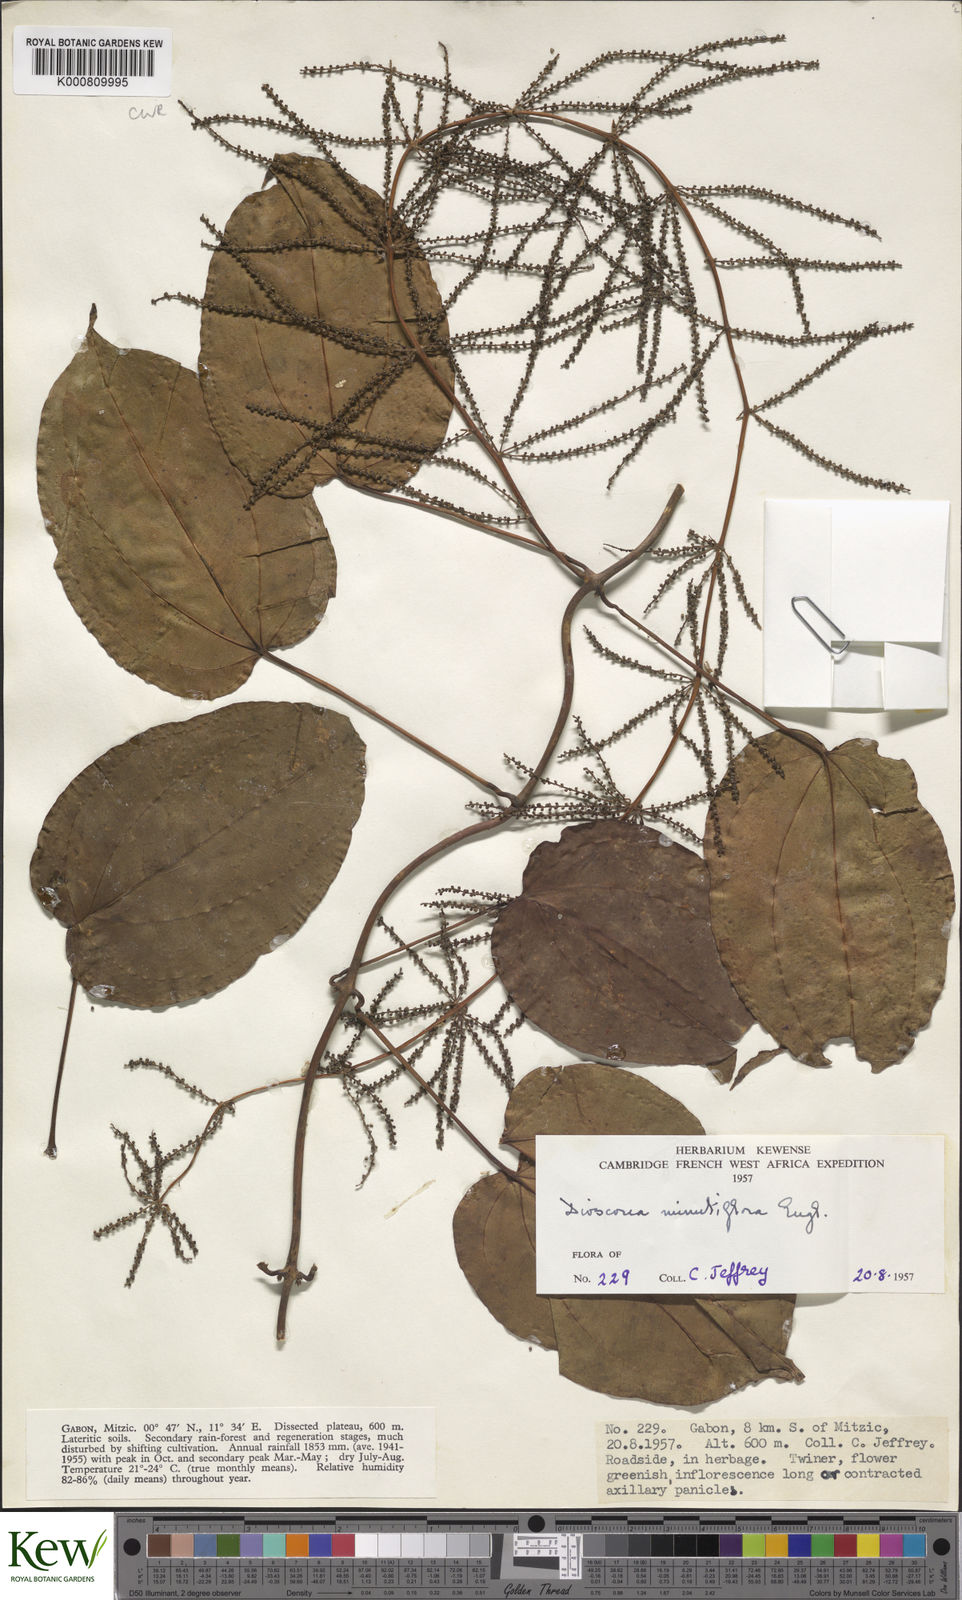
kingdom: Plantae
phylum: Tracheophyta
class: Liliopsida
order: Dioscoreales
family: Dioscoreaceae
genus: Dioscorea
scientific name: Dioscorea minutiflora
